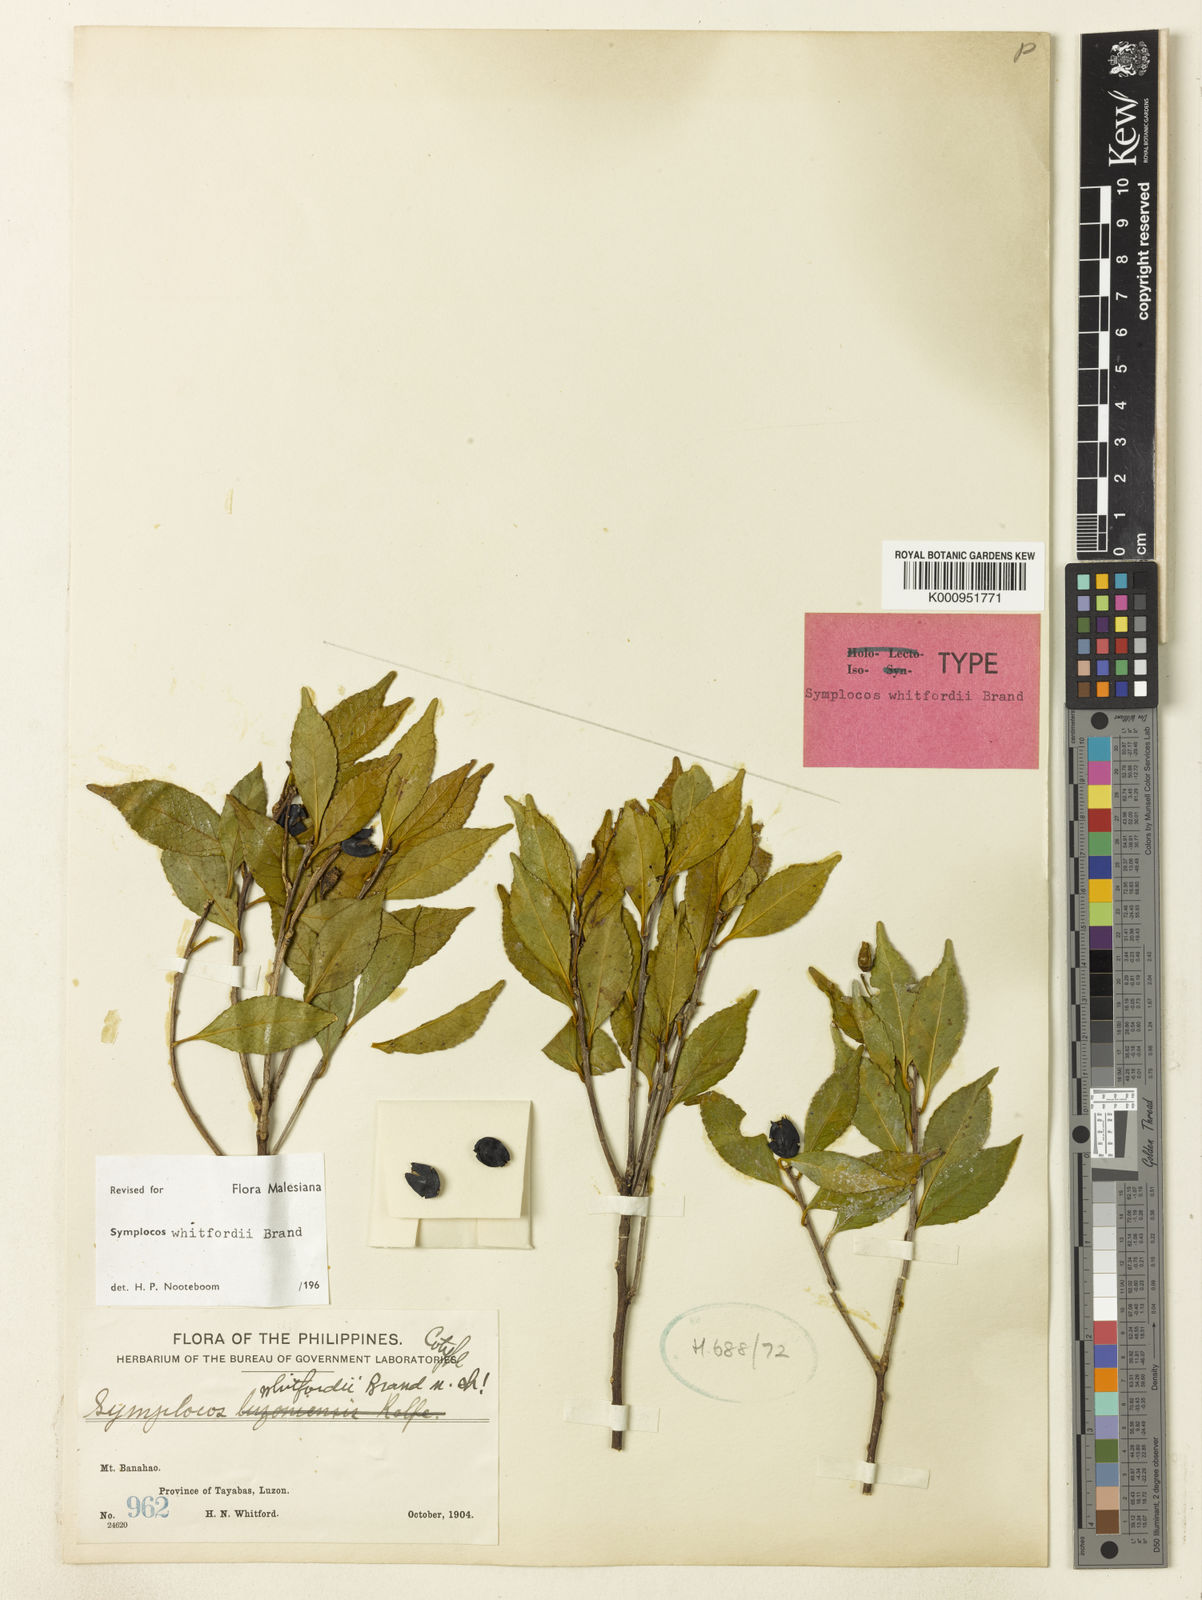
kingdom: Plantae
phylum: Tracheophyta
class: Magnoliopsida
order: Ericales
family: Symplocaceae
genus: Symplocos
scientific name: Symplocos whitfordii
